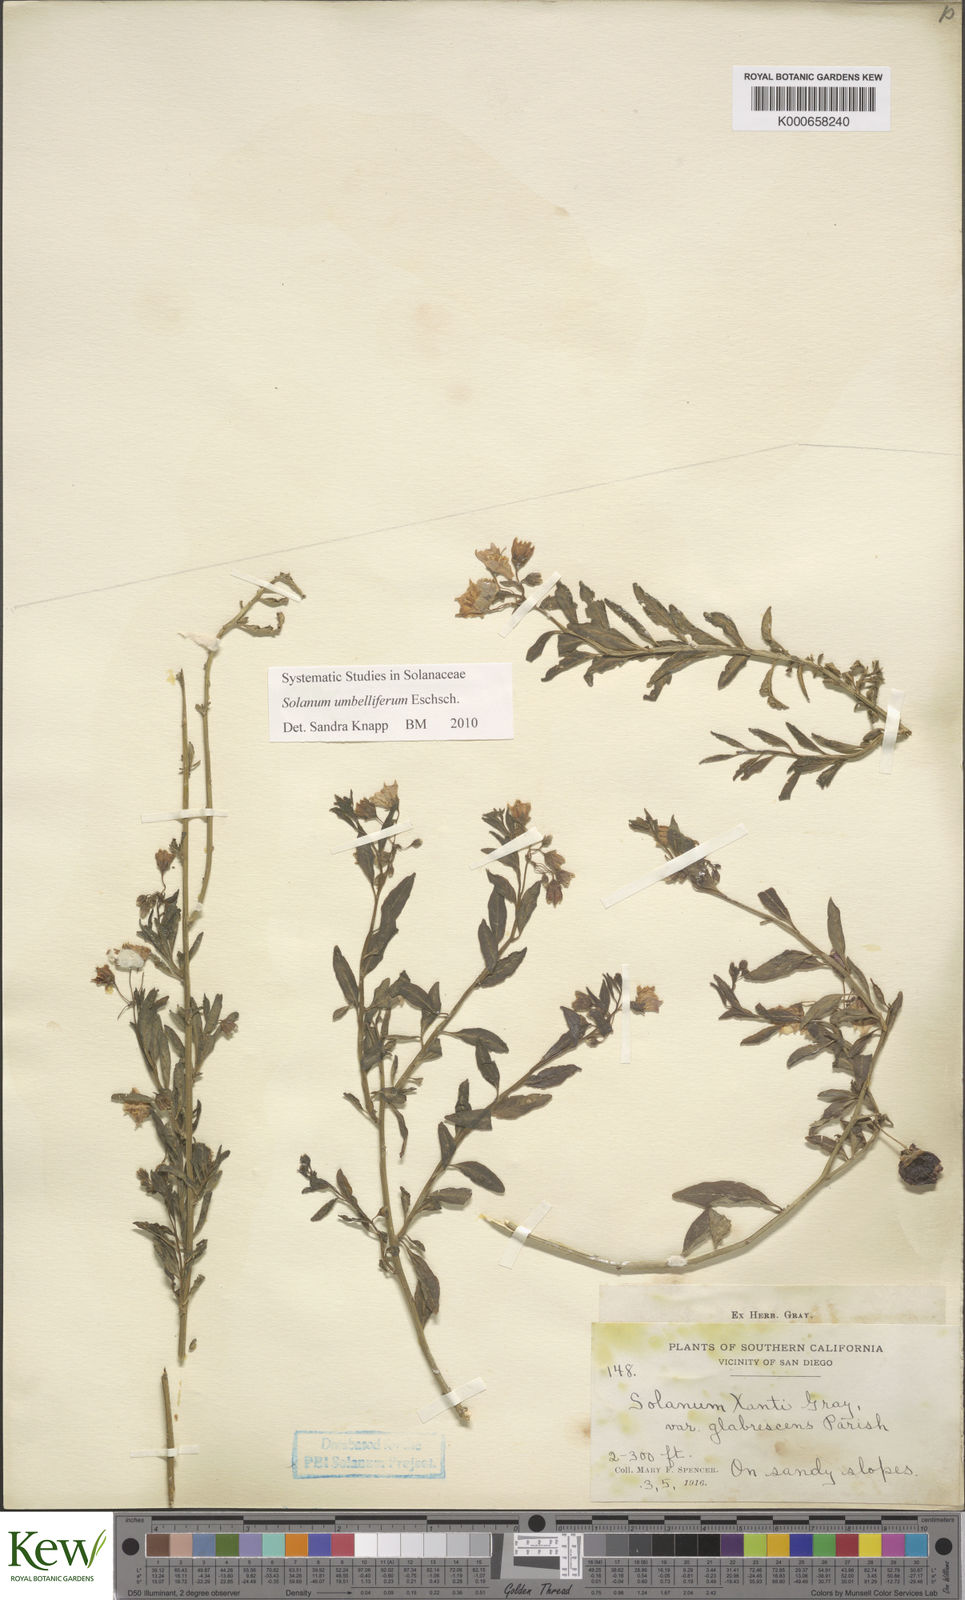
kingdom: Plantae
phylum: Tracheophyta
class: Magnoliopsida
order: Solanales
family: Solanaceae
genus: Solanum
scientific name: Solanum umbelliferum
